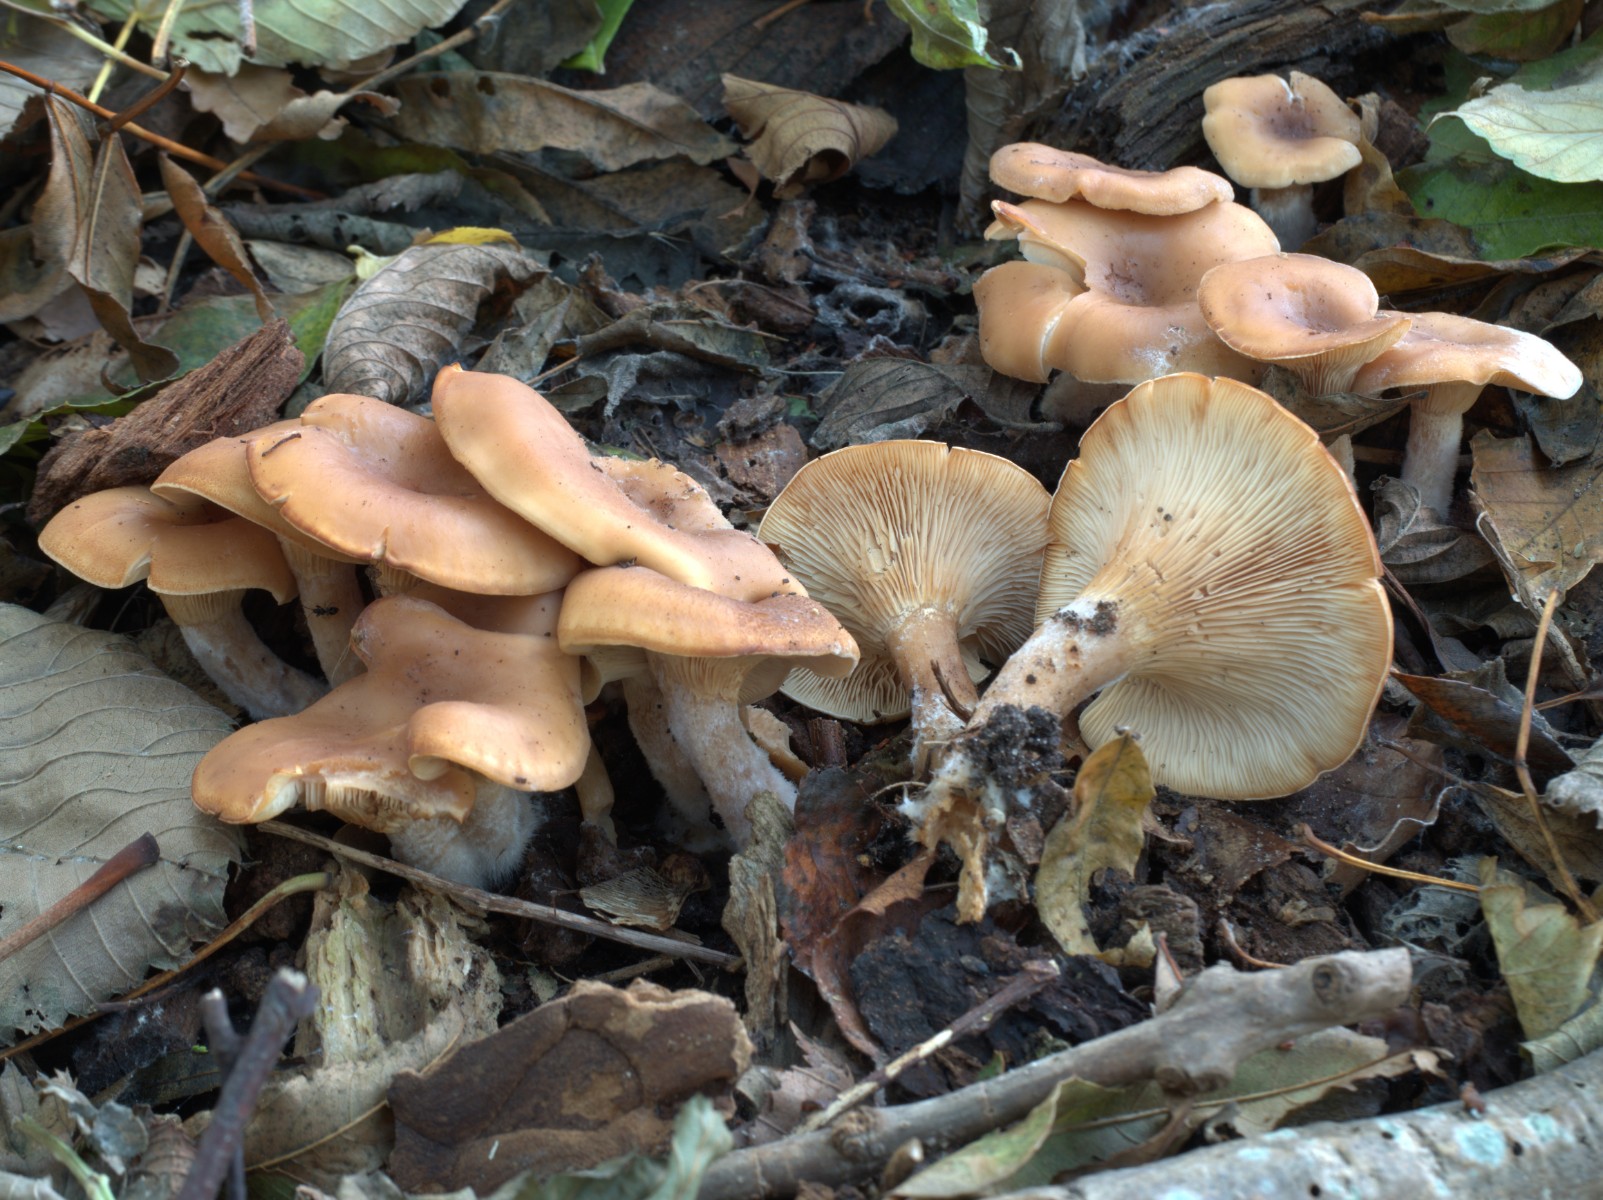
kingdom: Fungi
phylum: Basidiomycota
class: Agaricomycetes
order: Agaricales
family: Tricholomataceae
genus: Paralepista
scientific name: Paralepista flaccida
